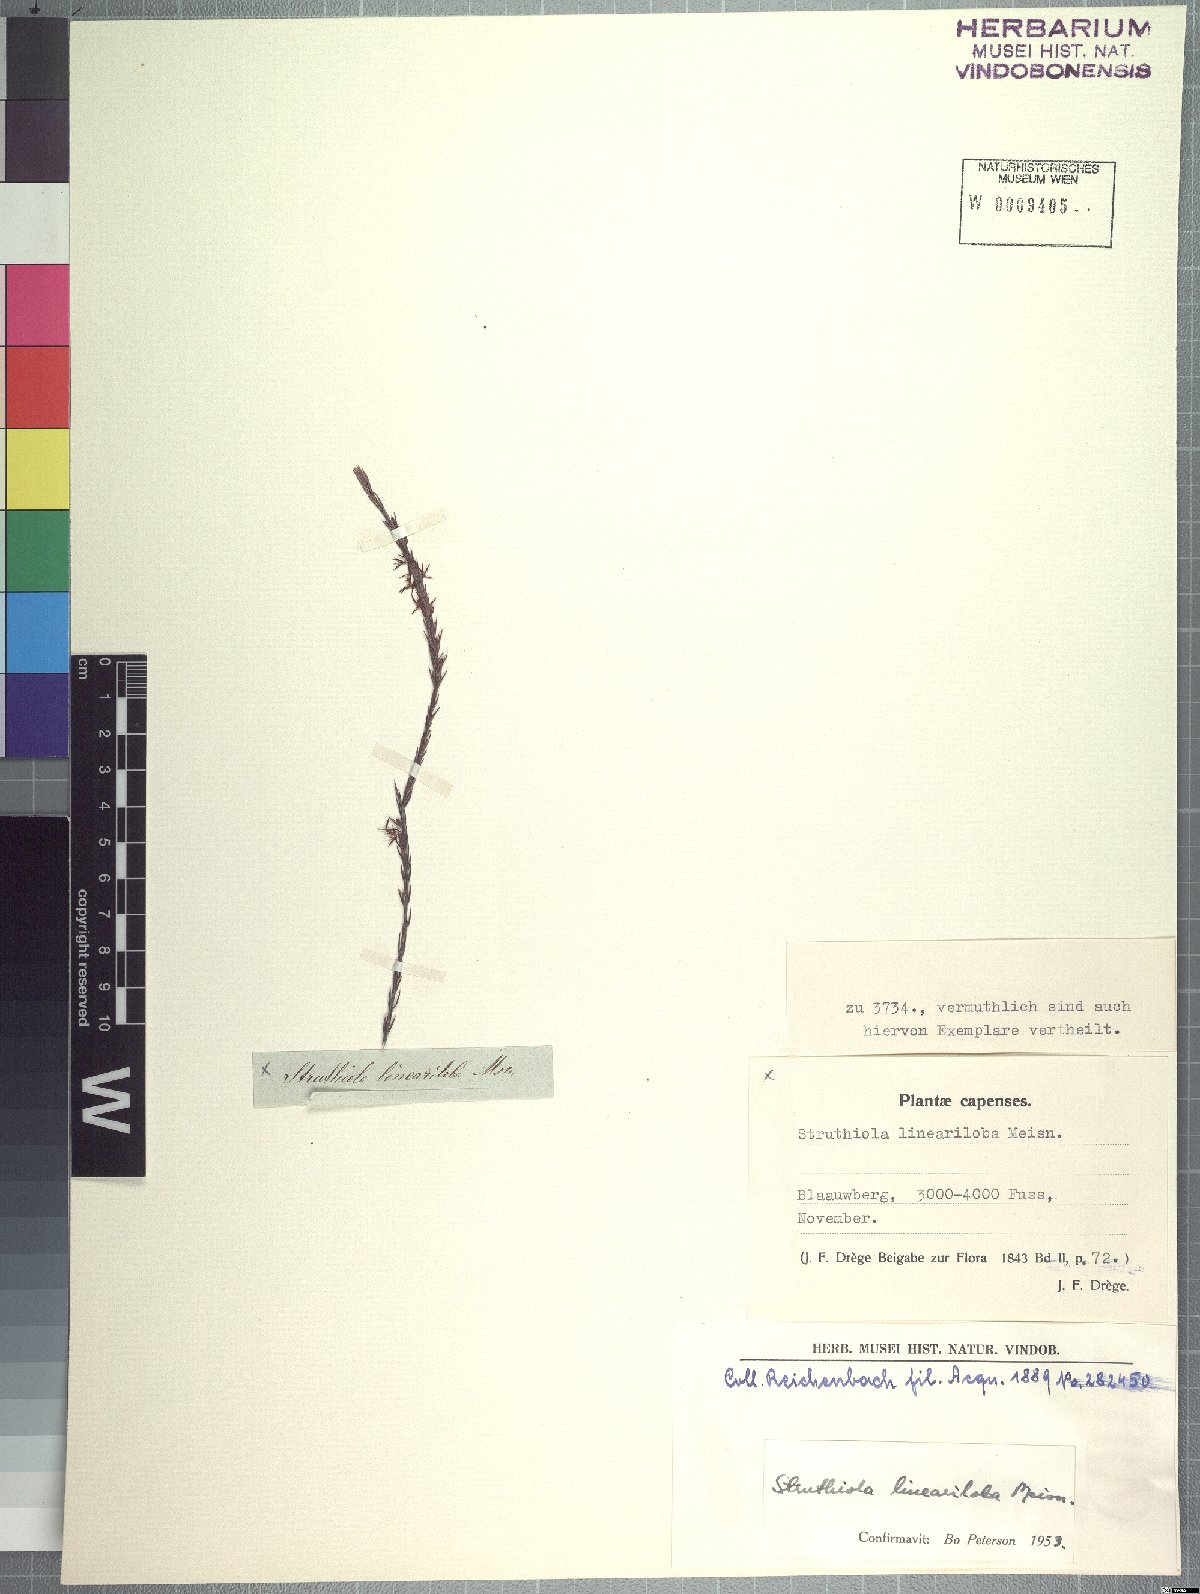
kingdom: Plantae
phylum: Tracheophyta
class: Magnoliopsida
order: Malvales
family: Thymelaeaceae
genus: Struthiola
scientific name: Struthiola lineariloba
